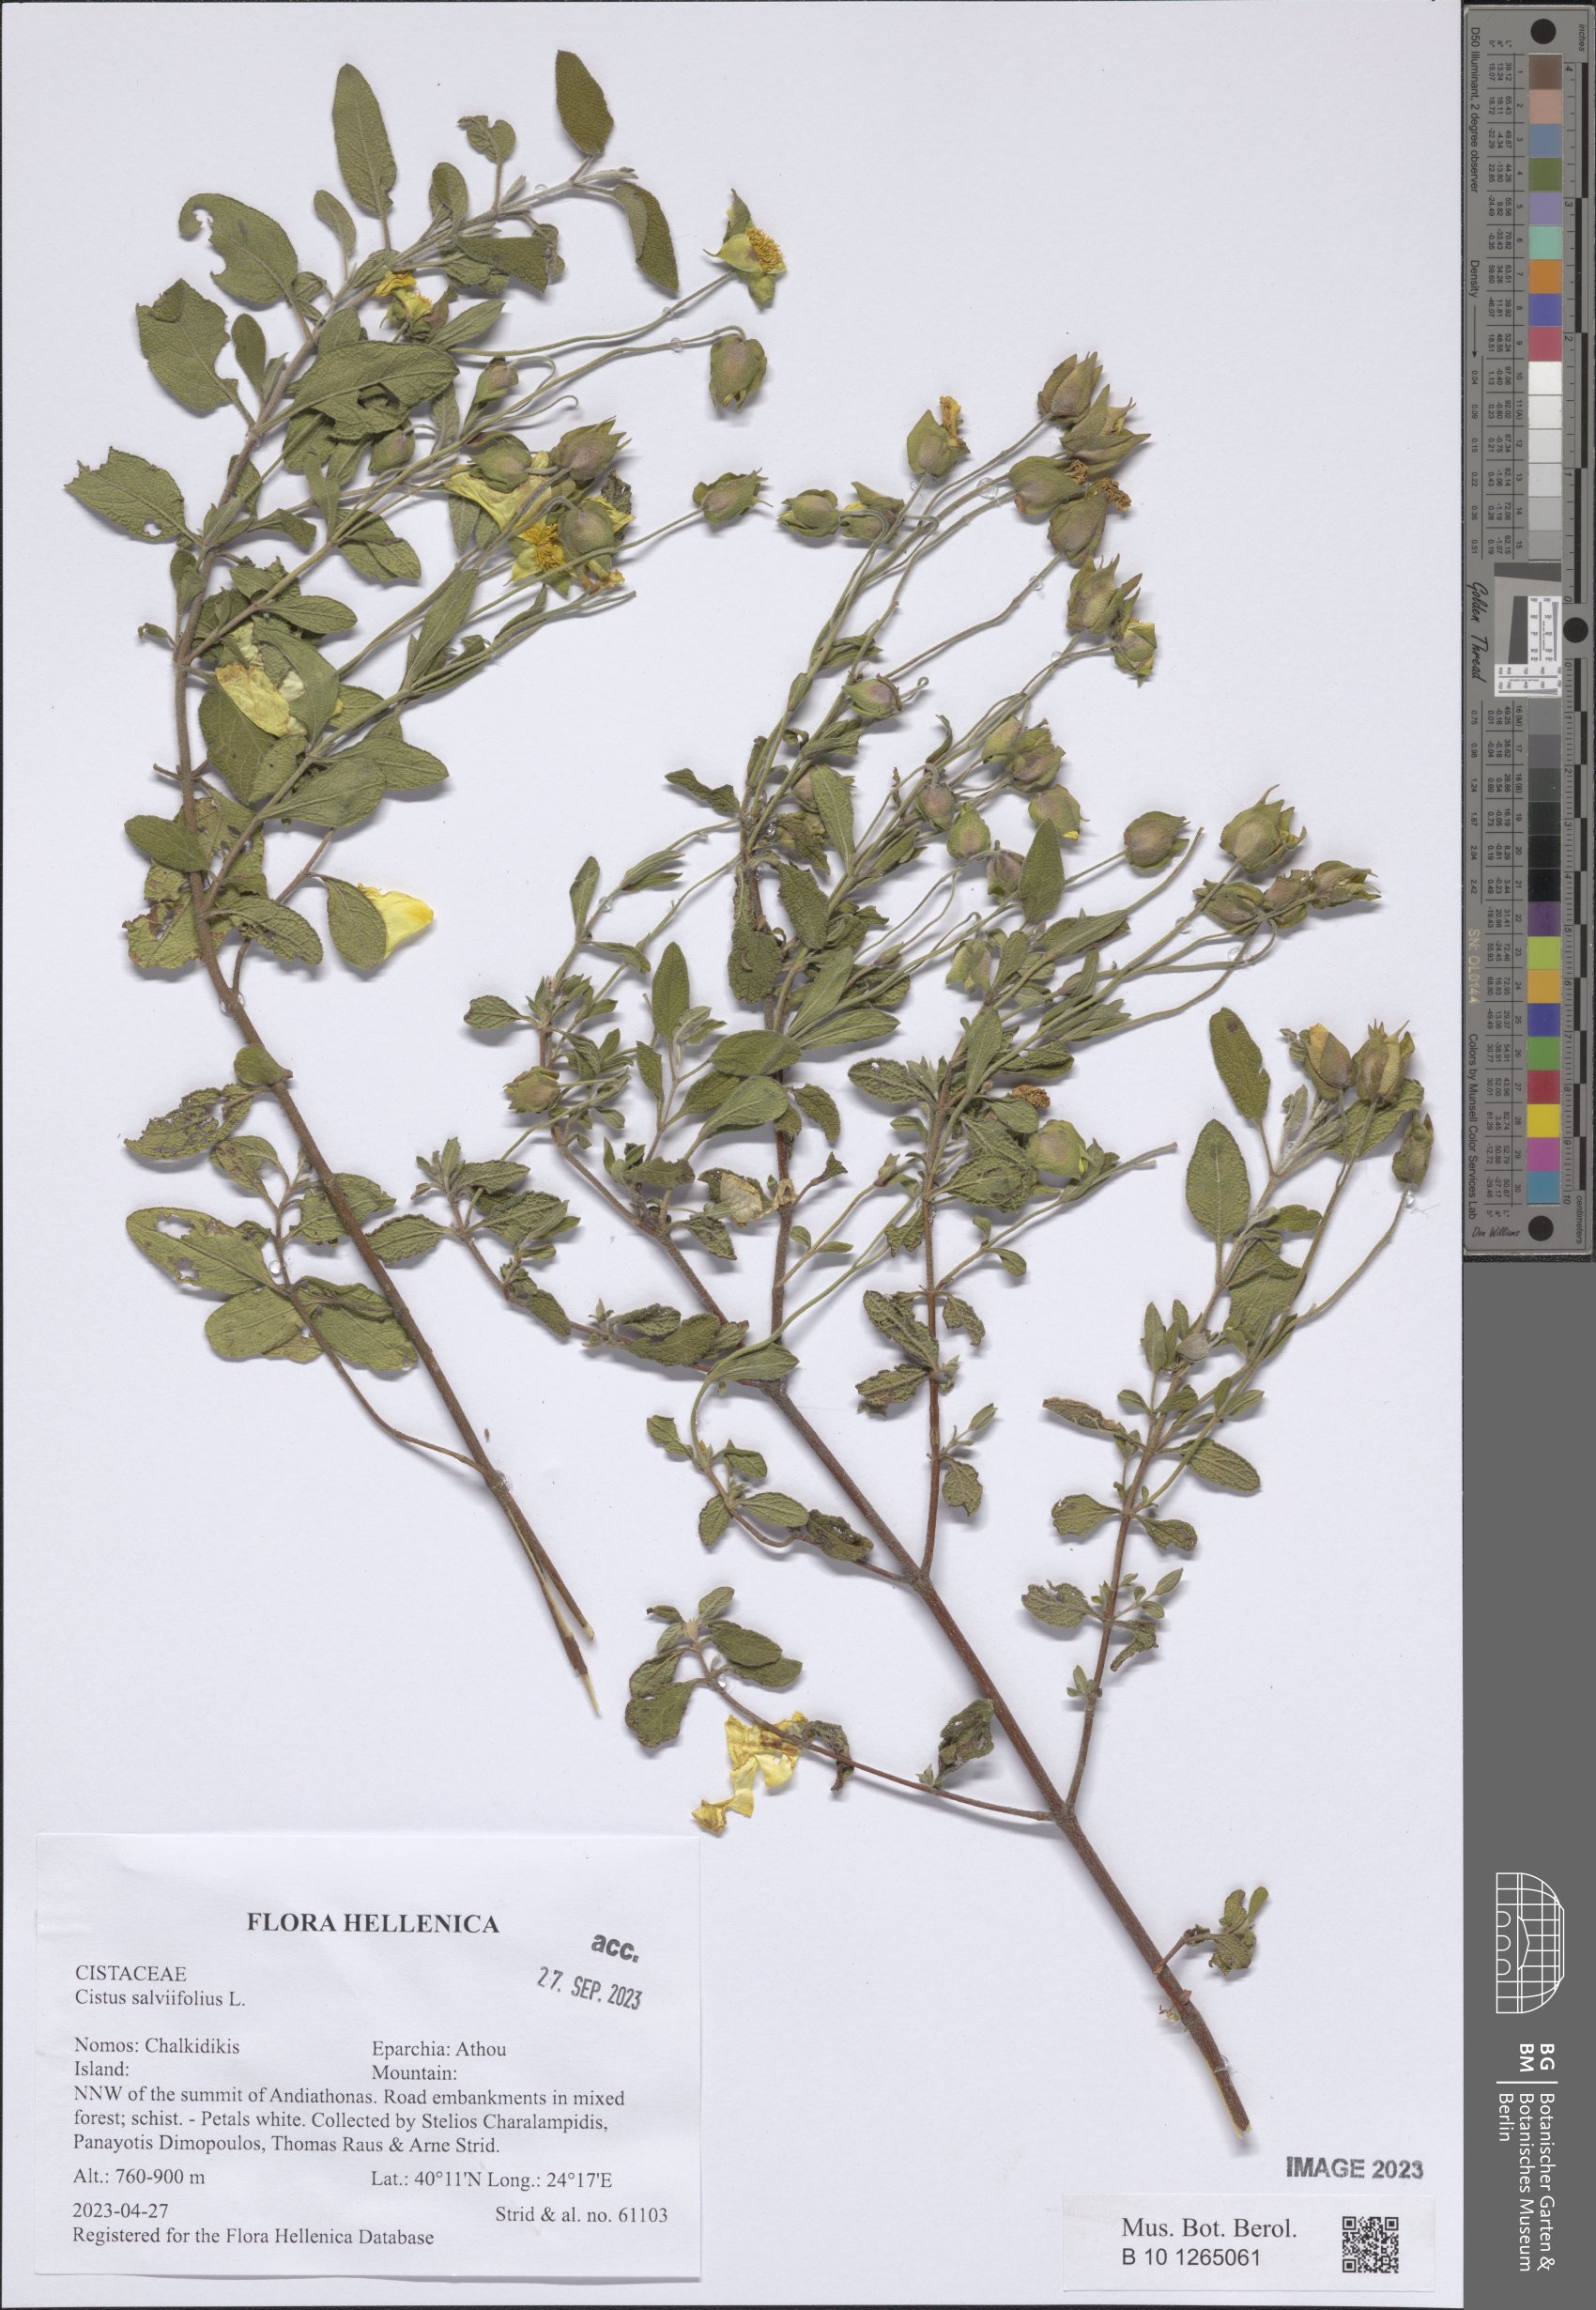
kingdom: Plantae
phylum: Tracheophyta
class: Magnoliopsida
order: Malvales
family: Cistaceae
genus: Cistus
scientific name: Cistus salviifolius
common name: Salvia cistus
